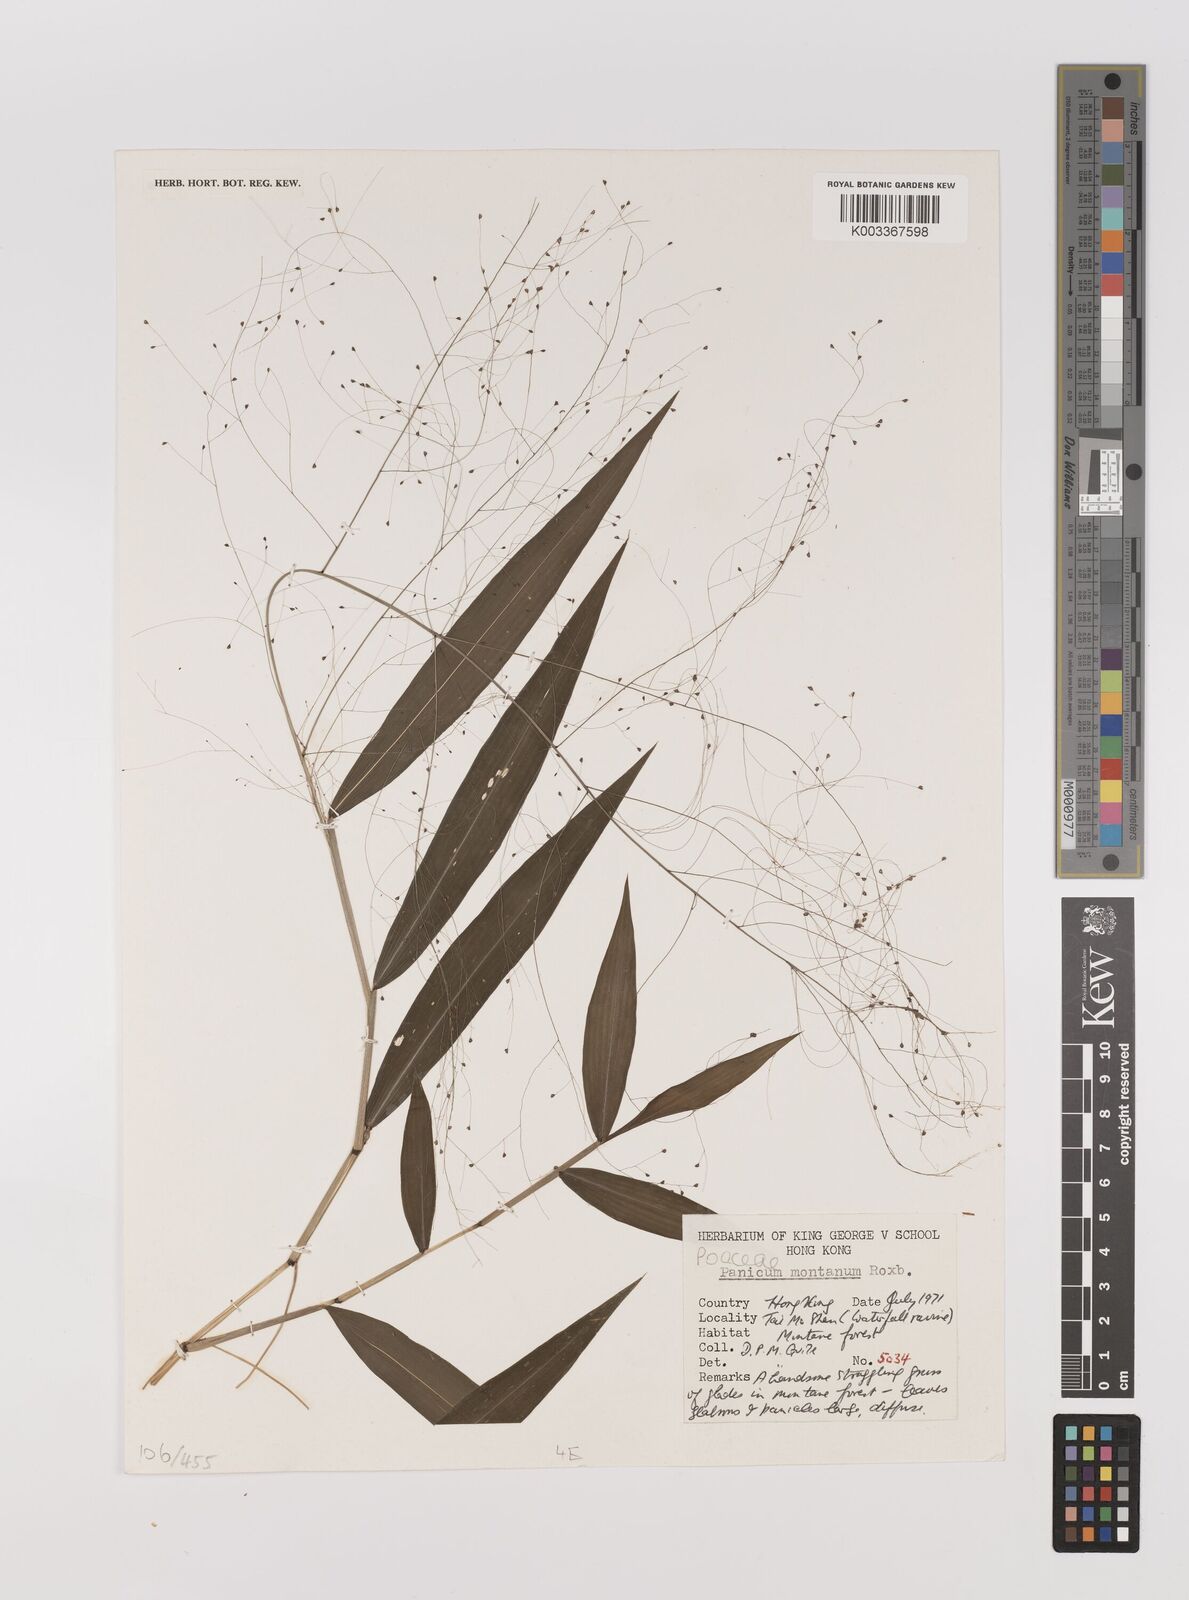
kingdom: Plantae
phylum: Tracheophyta
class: Liliopsida
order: Poales
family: Poaceae
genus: Panicum
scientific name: Panicum notatum
